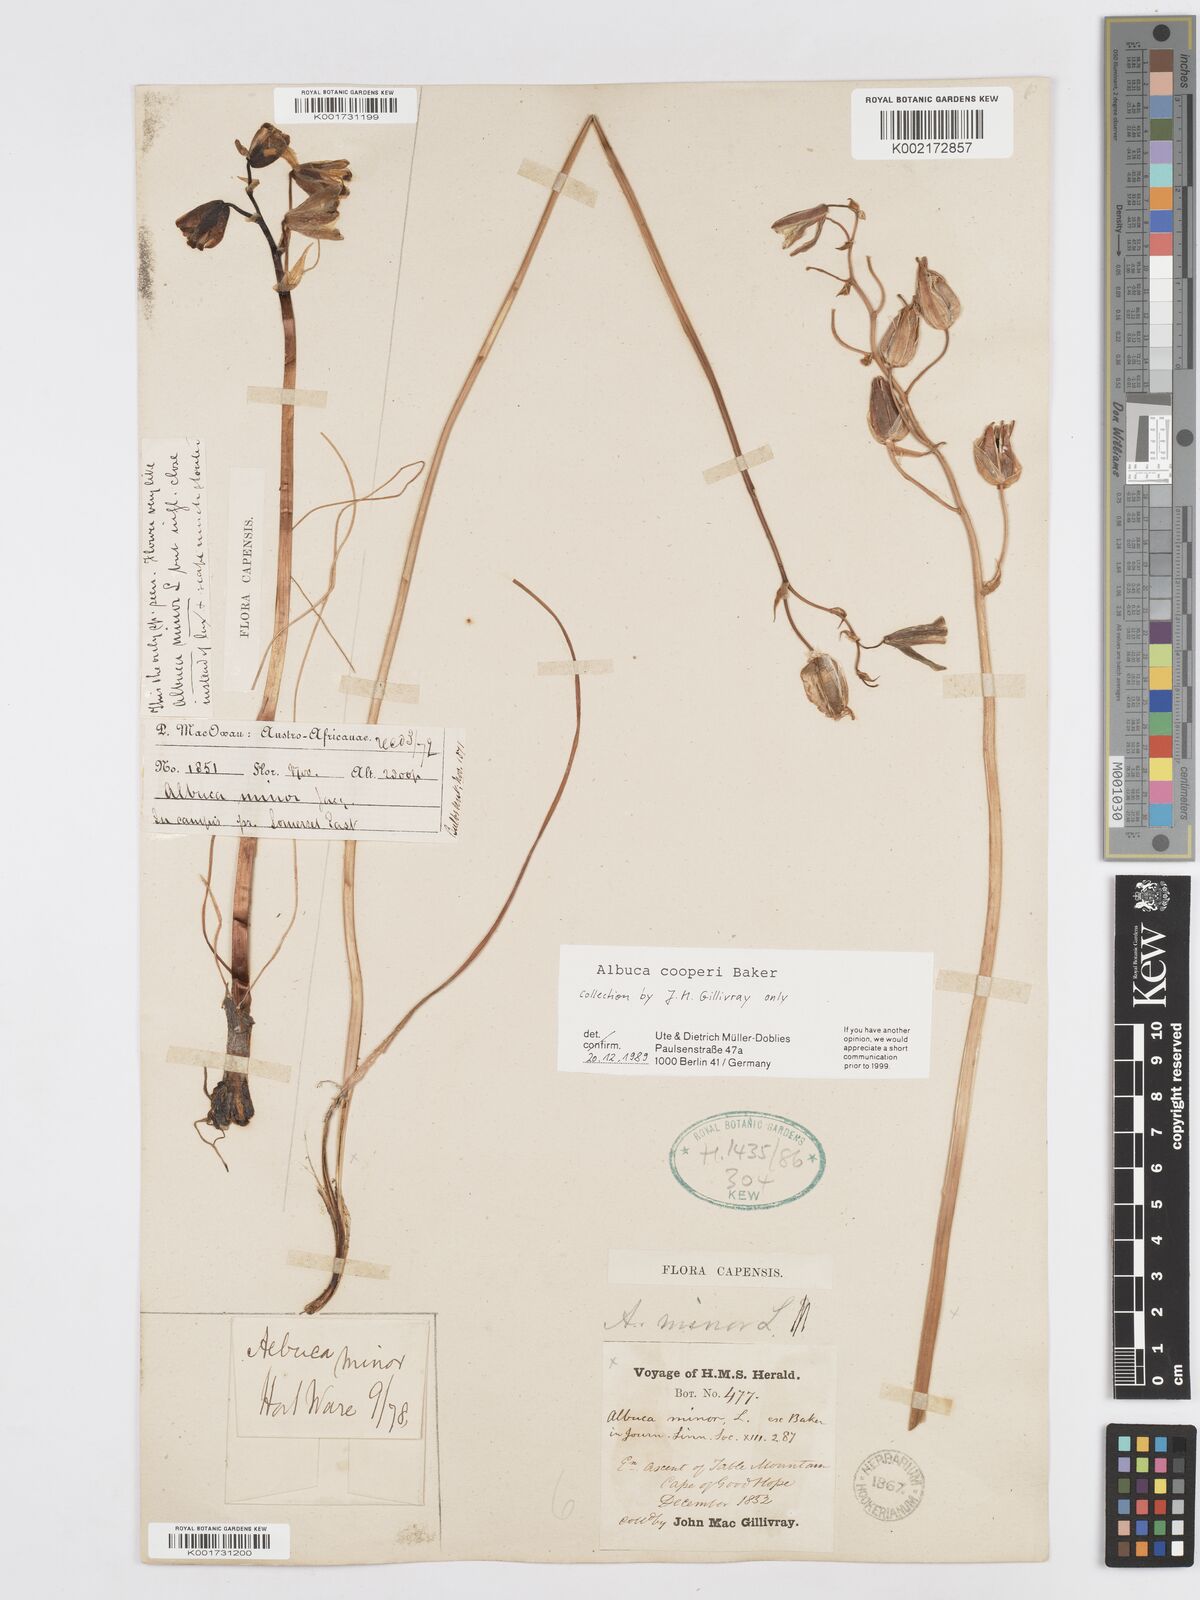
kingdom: Plantae
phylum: Tracheophyta
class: Liliopsida
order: Asparagales
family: Asparagaceae
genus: Albuca
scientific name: Albuca cooperi
